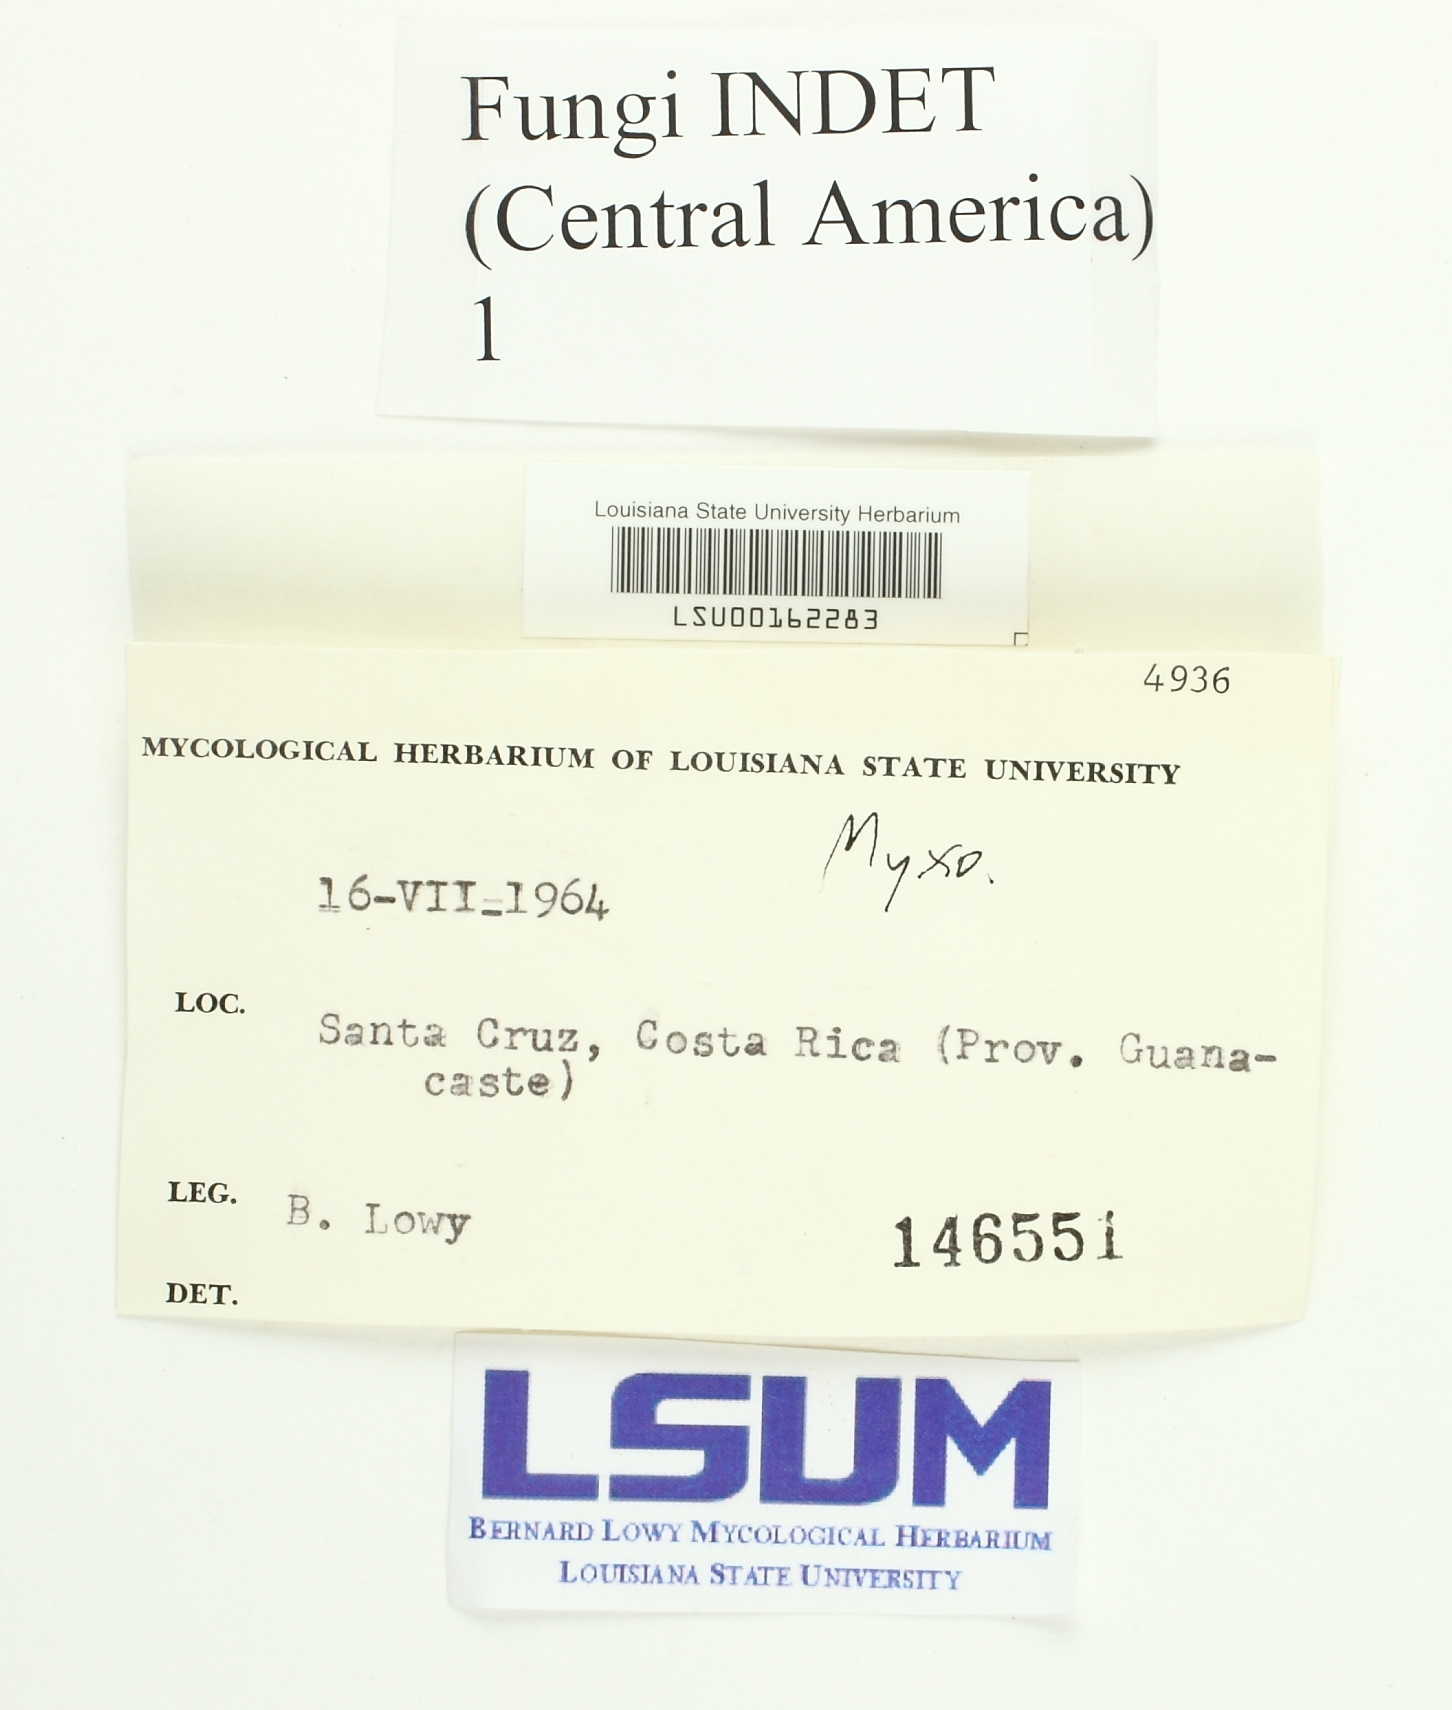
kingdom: Fungi
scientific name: Fungi
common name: Fungi
